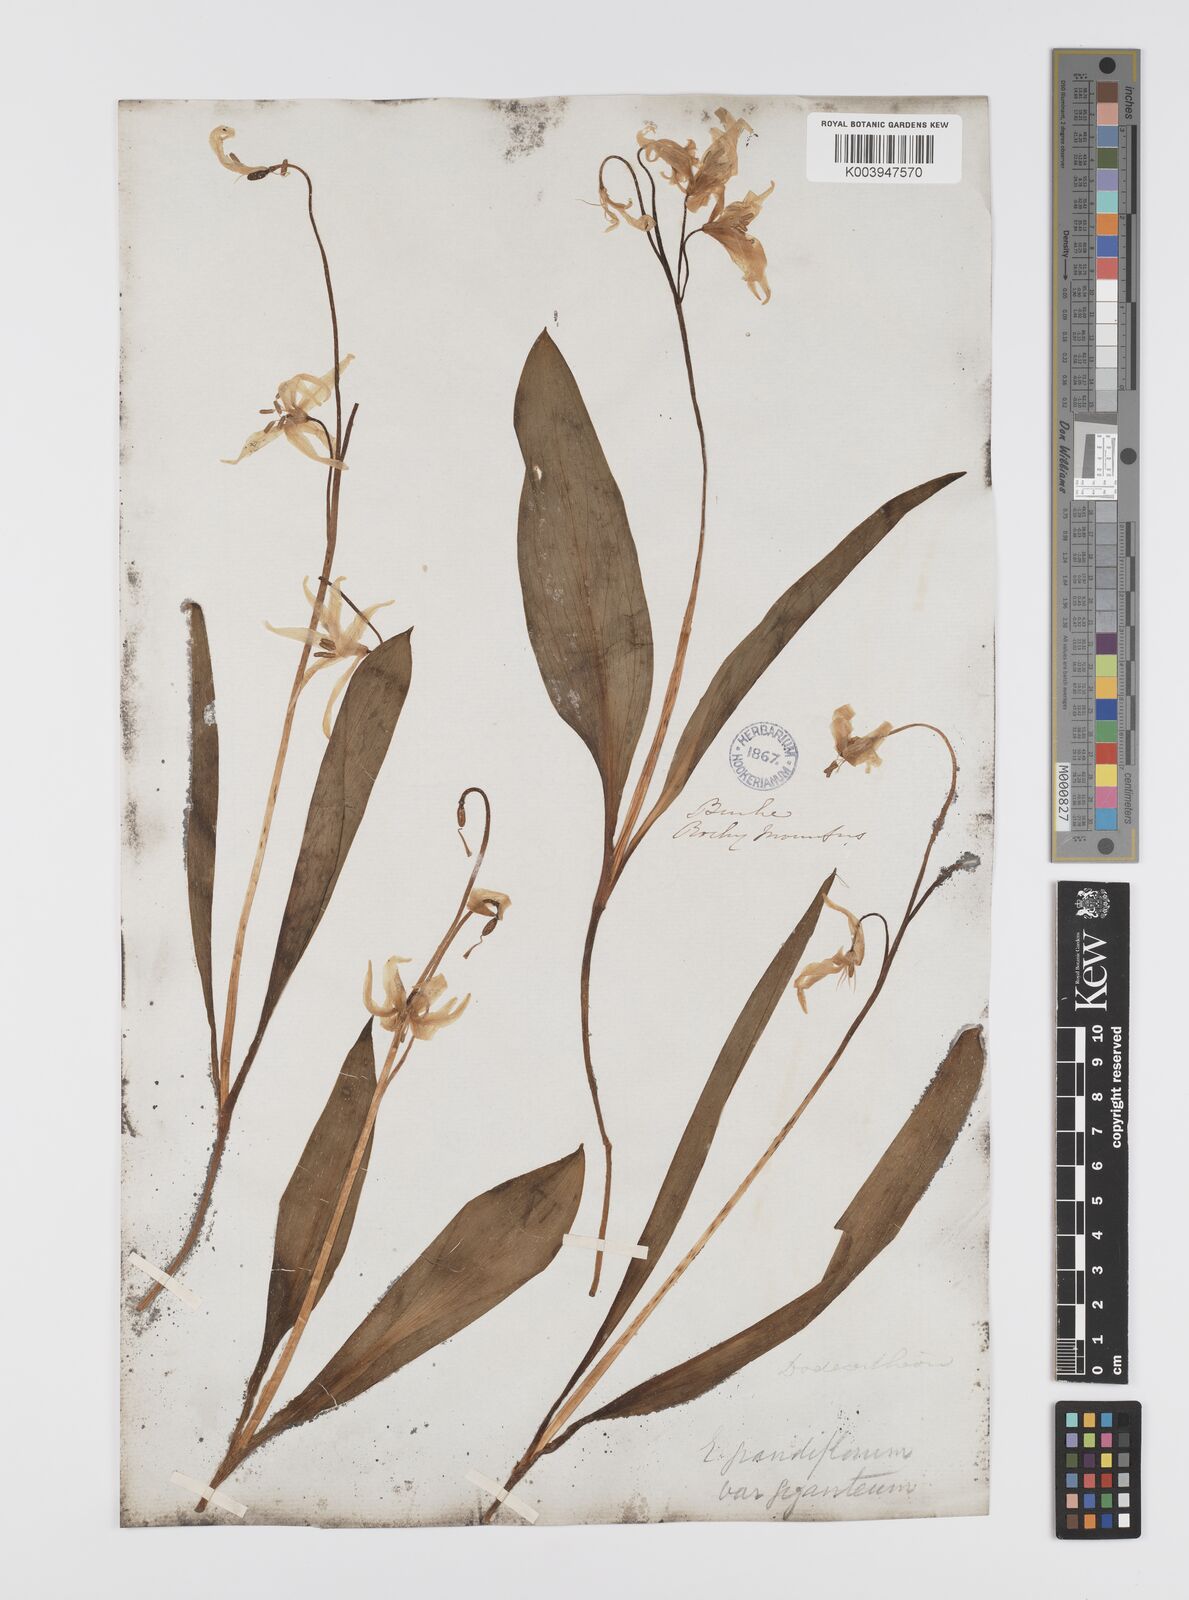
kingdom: Plantae
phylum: Tracheophyta
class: Liliopsida
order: Liliales
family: Liliaceae
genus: Erythronium
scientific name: Erythronium grandiflorum
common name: Avalanche-lily
